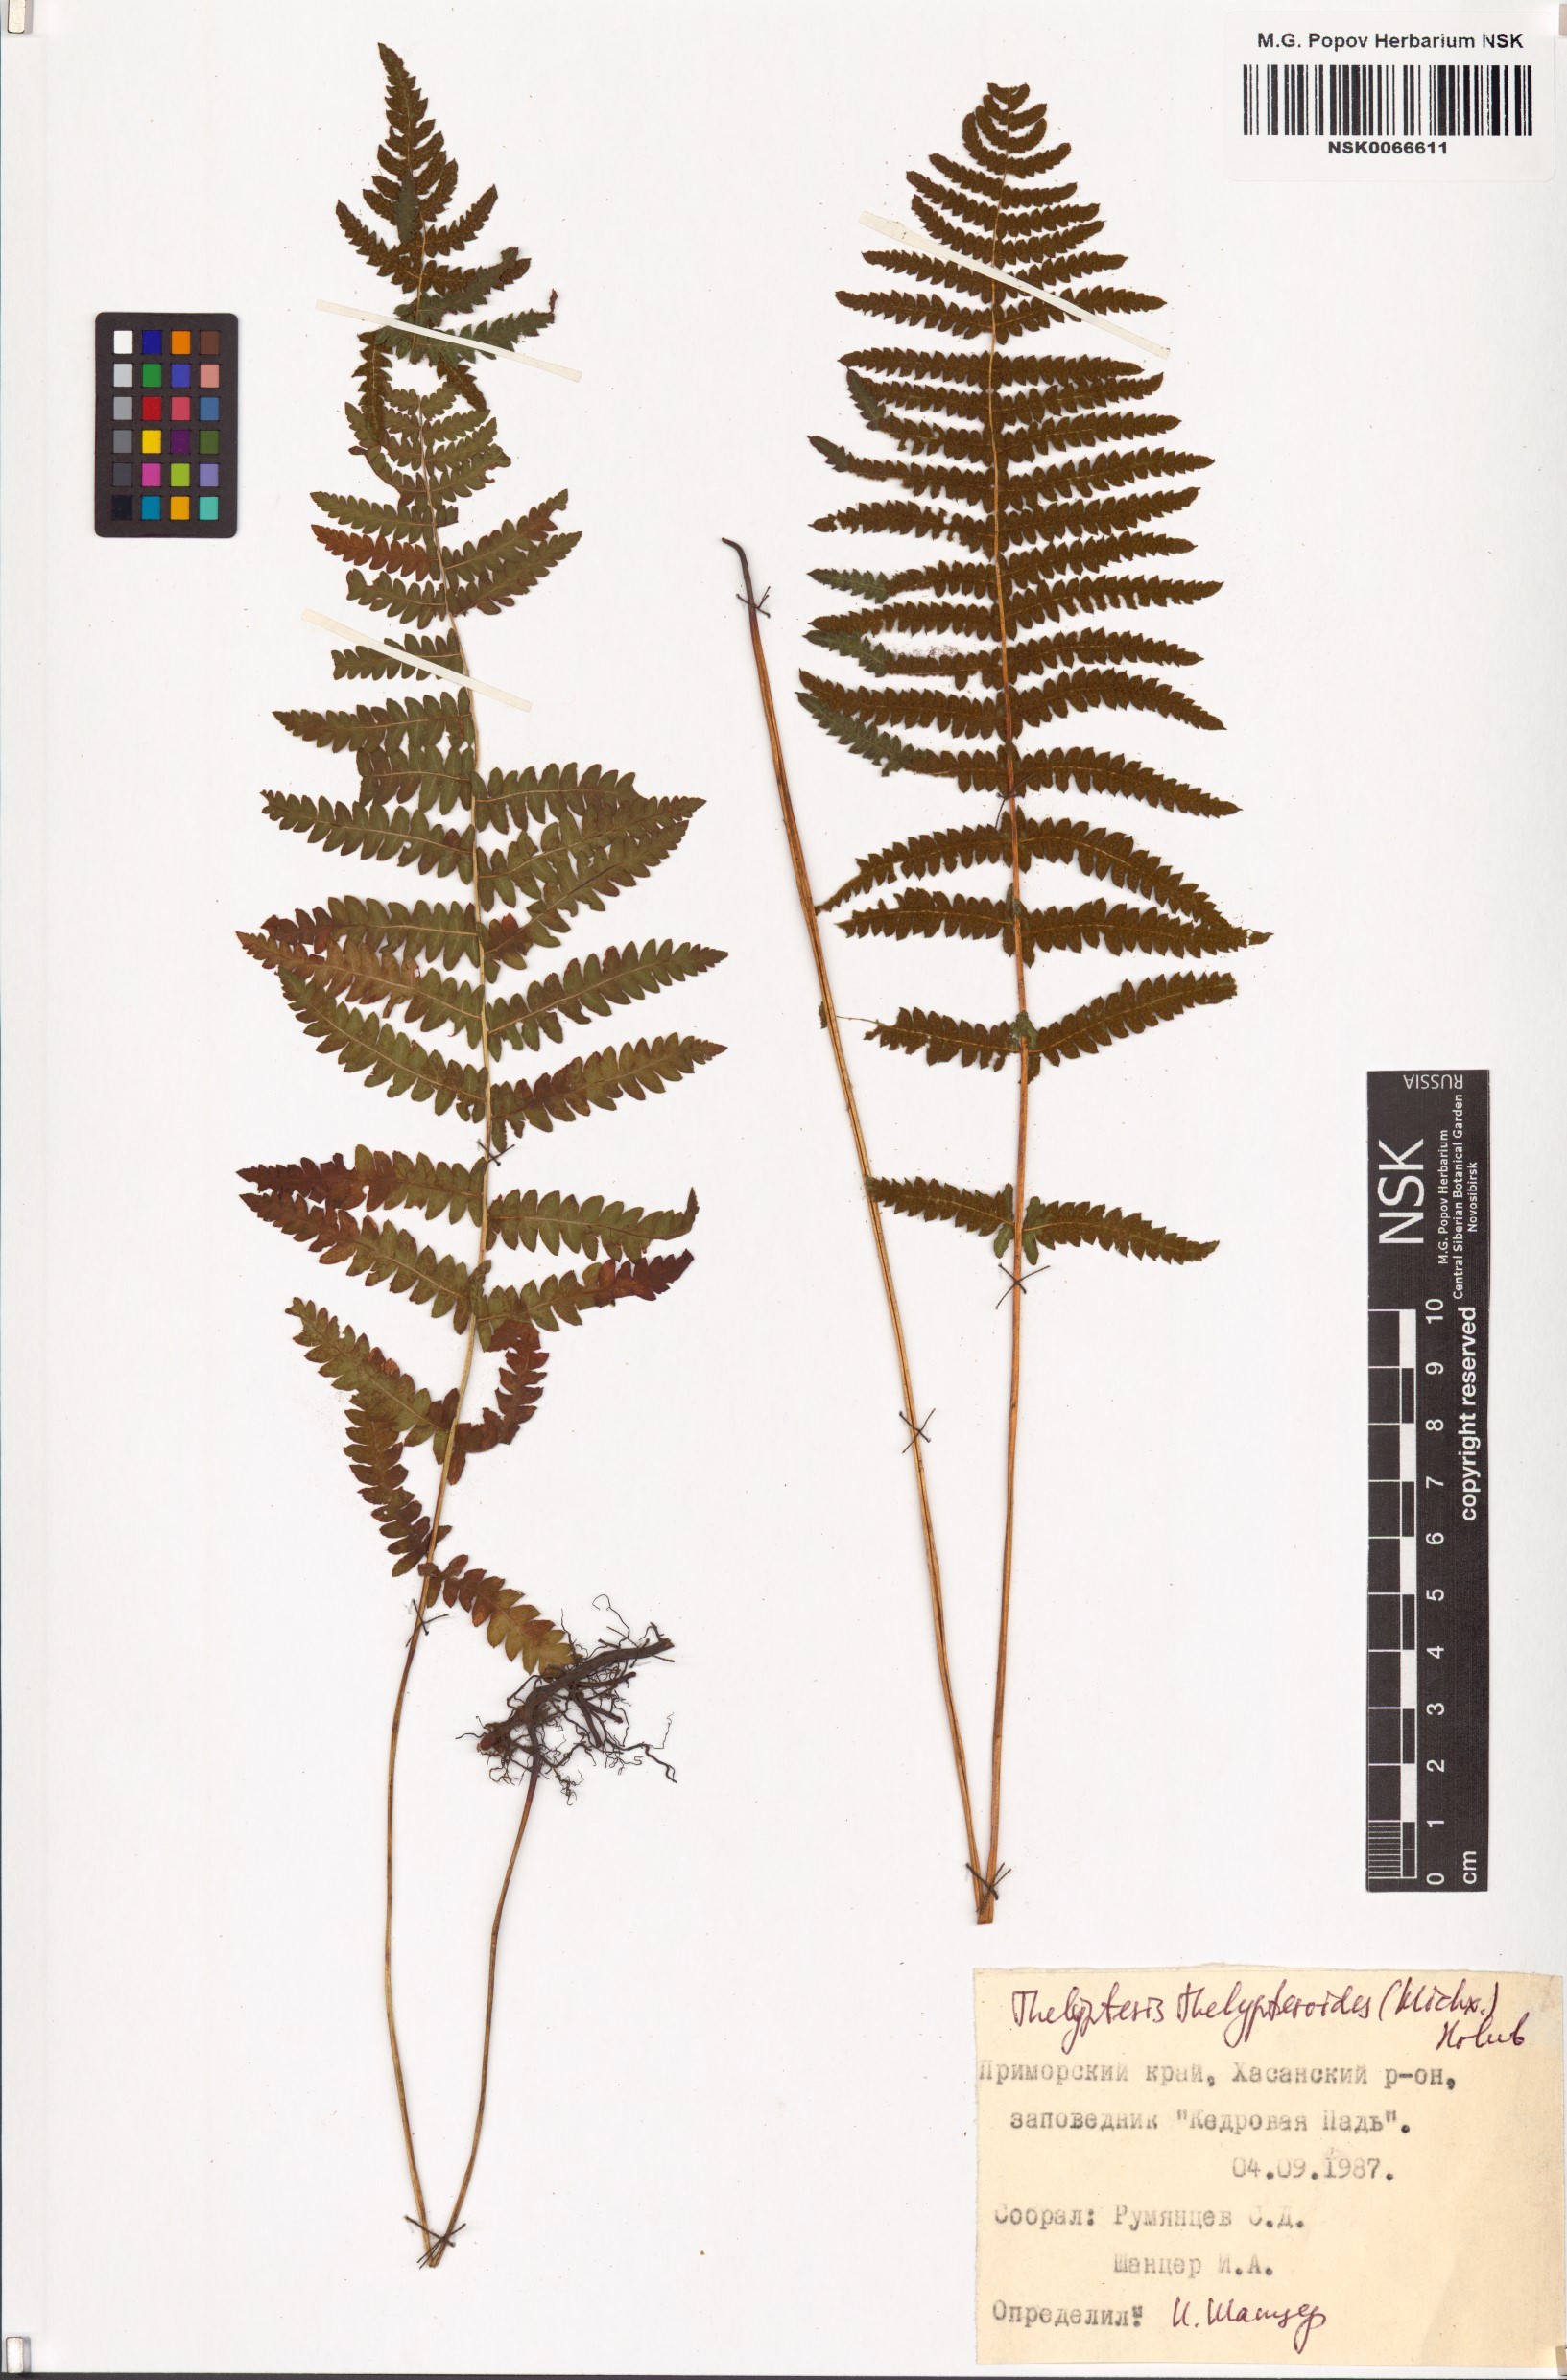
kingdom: Plantae
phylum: Tracheophyta
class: Polypodiopsida
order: Polypodiales
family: Thelypteridaceae
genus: Amauropelta
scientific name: Amauropelta noveboracensis
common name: New york fern
